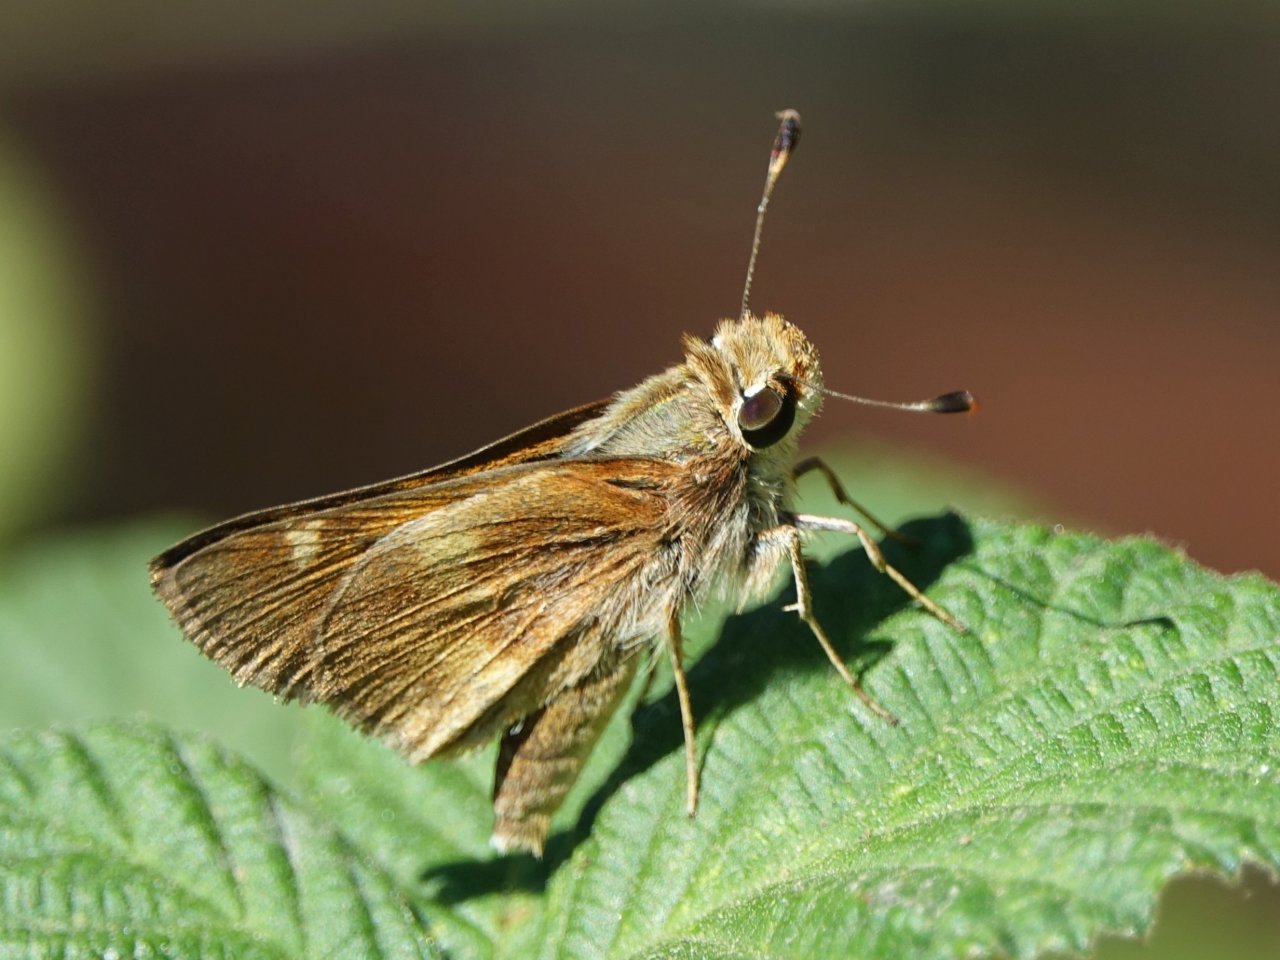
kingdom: Animalia
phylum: Arthropoda
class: Insecta
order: Lepidoptera
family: Hesperiidae
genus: Lon
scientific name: Lon melane
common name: Umber Skipper
